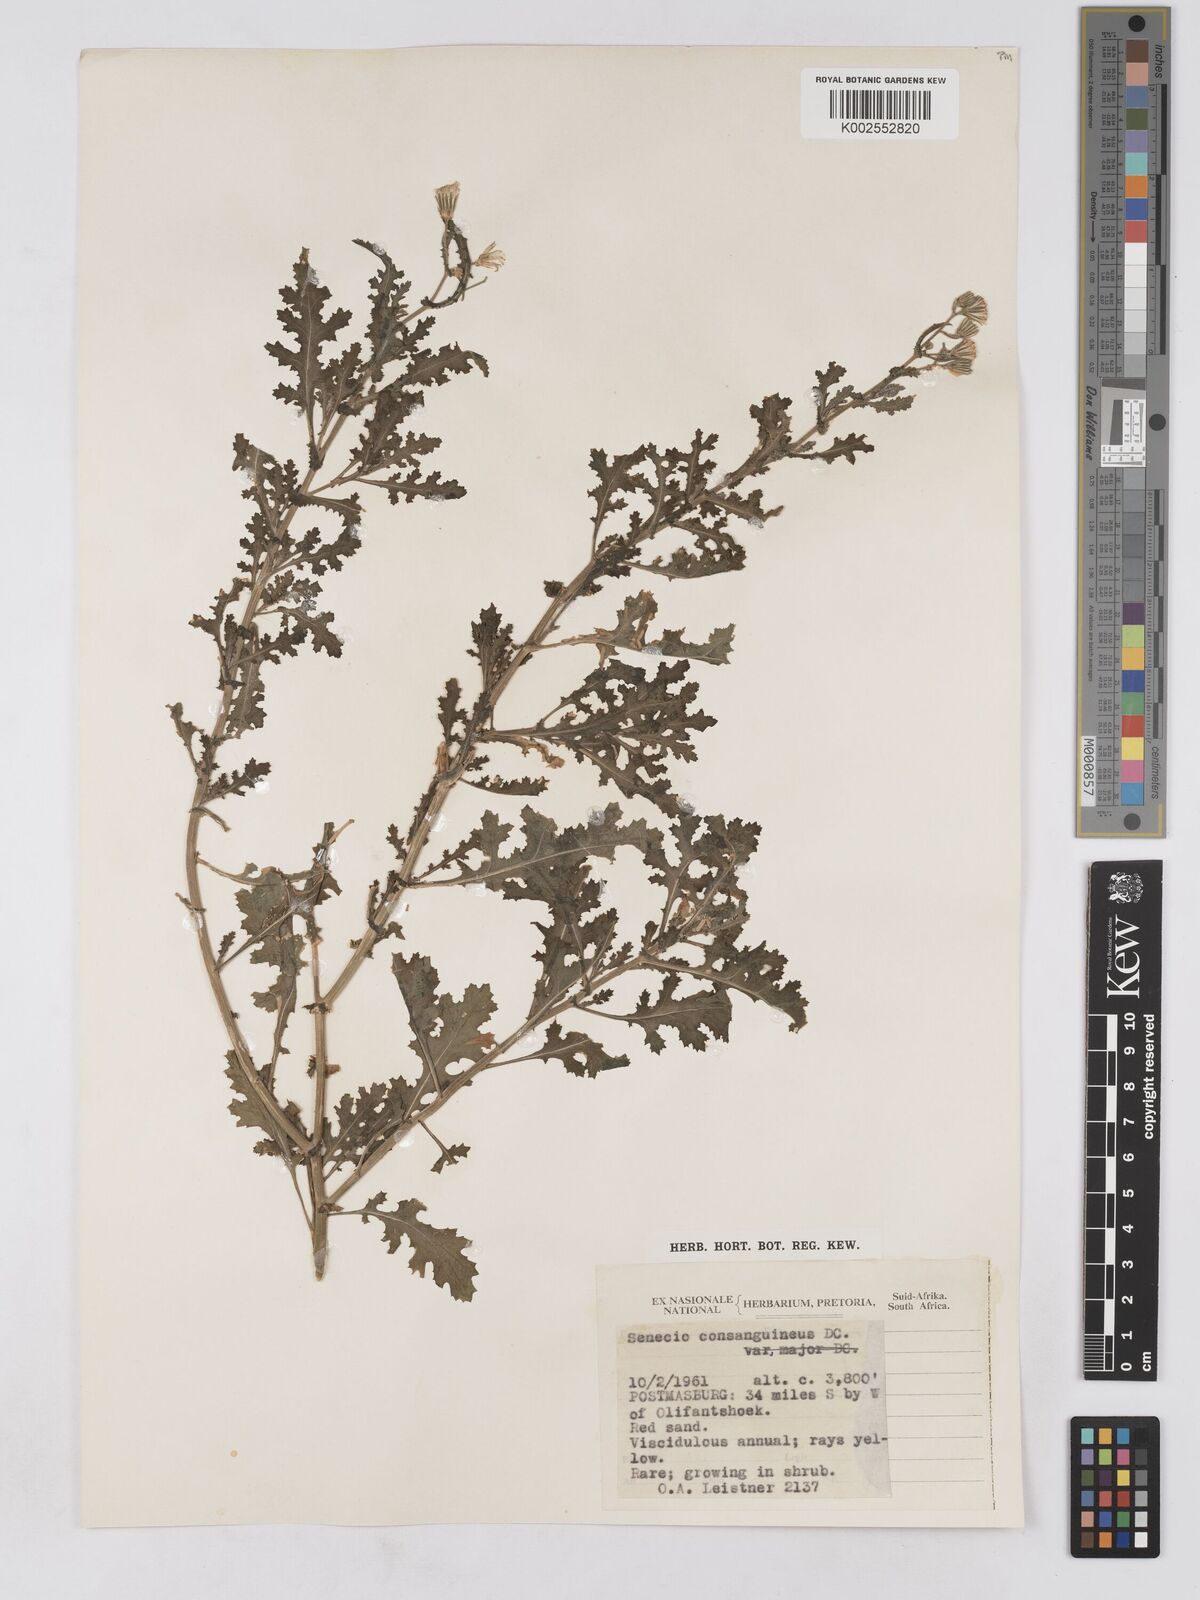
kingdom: Plantae
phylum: Tracheophyta
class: Magnoliopsida
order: Asterales
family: Asteraceae
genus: Senecio
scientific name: Senecio consanguineus
